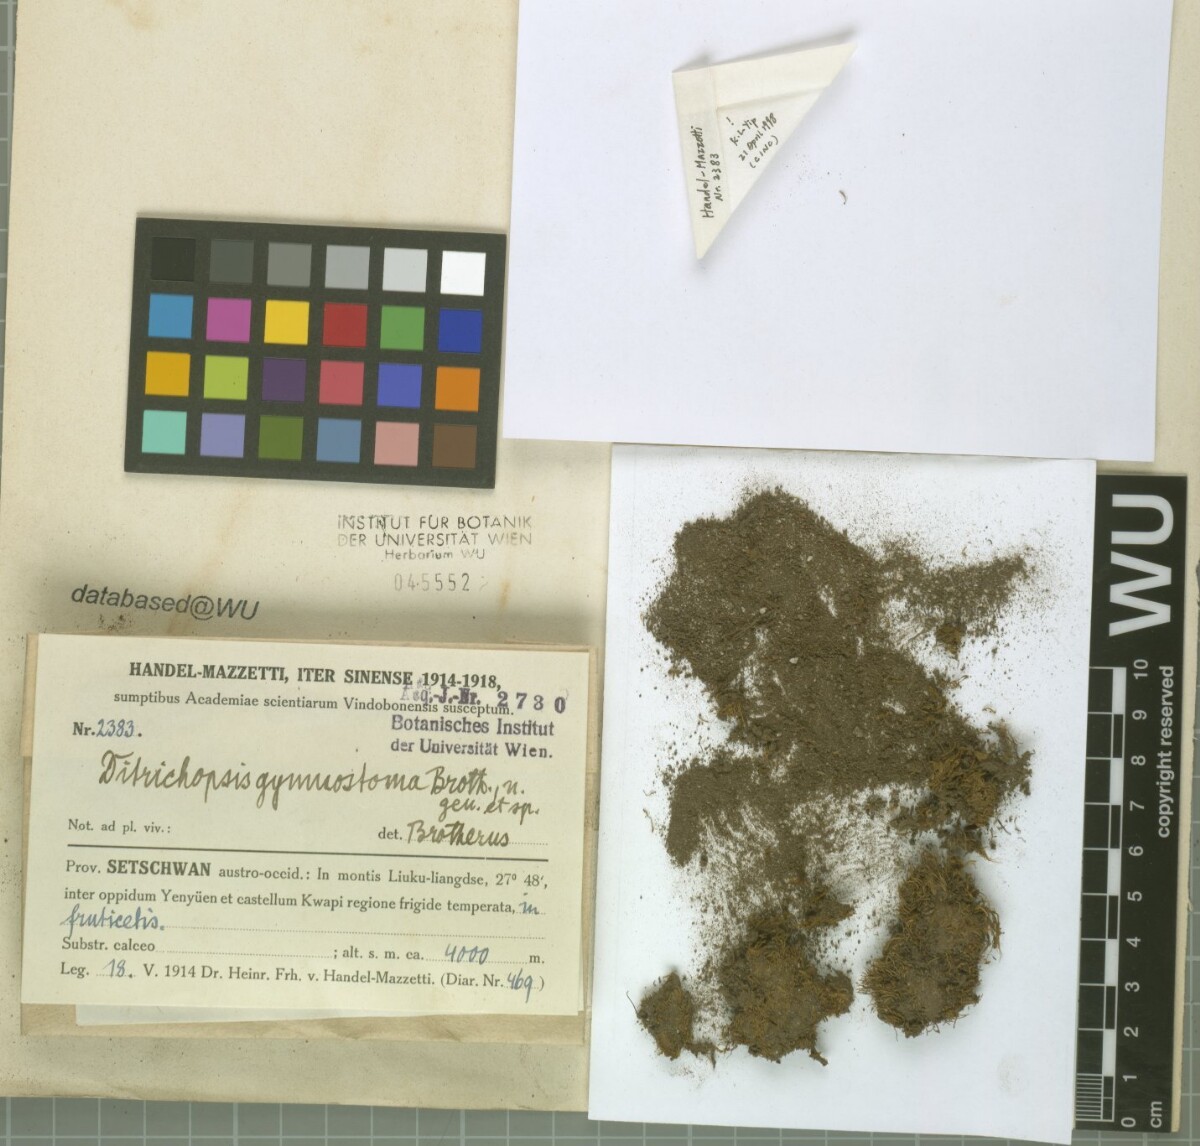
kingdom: Plantae
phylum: Bryophyta
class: Bryopsida
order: Dicranales
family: Ditrichaceae
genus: Ditrichopsis
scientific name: Ditrichopsis gymnostoma
